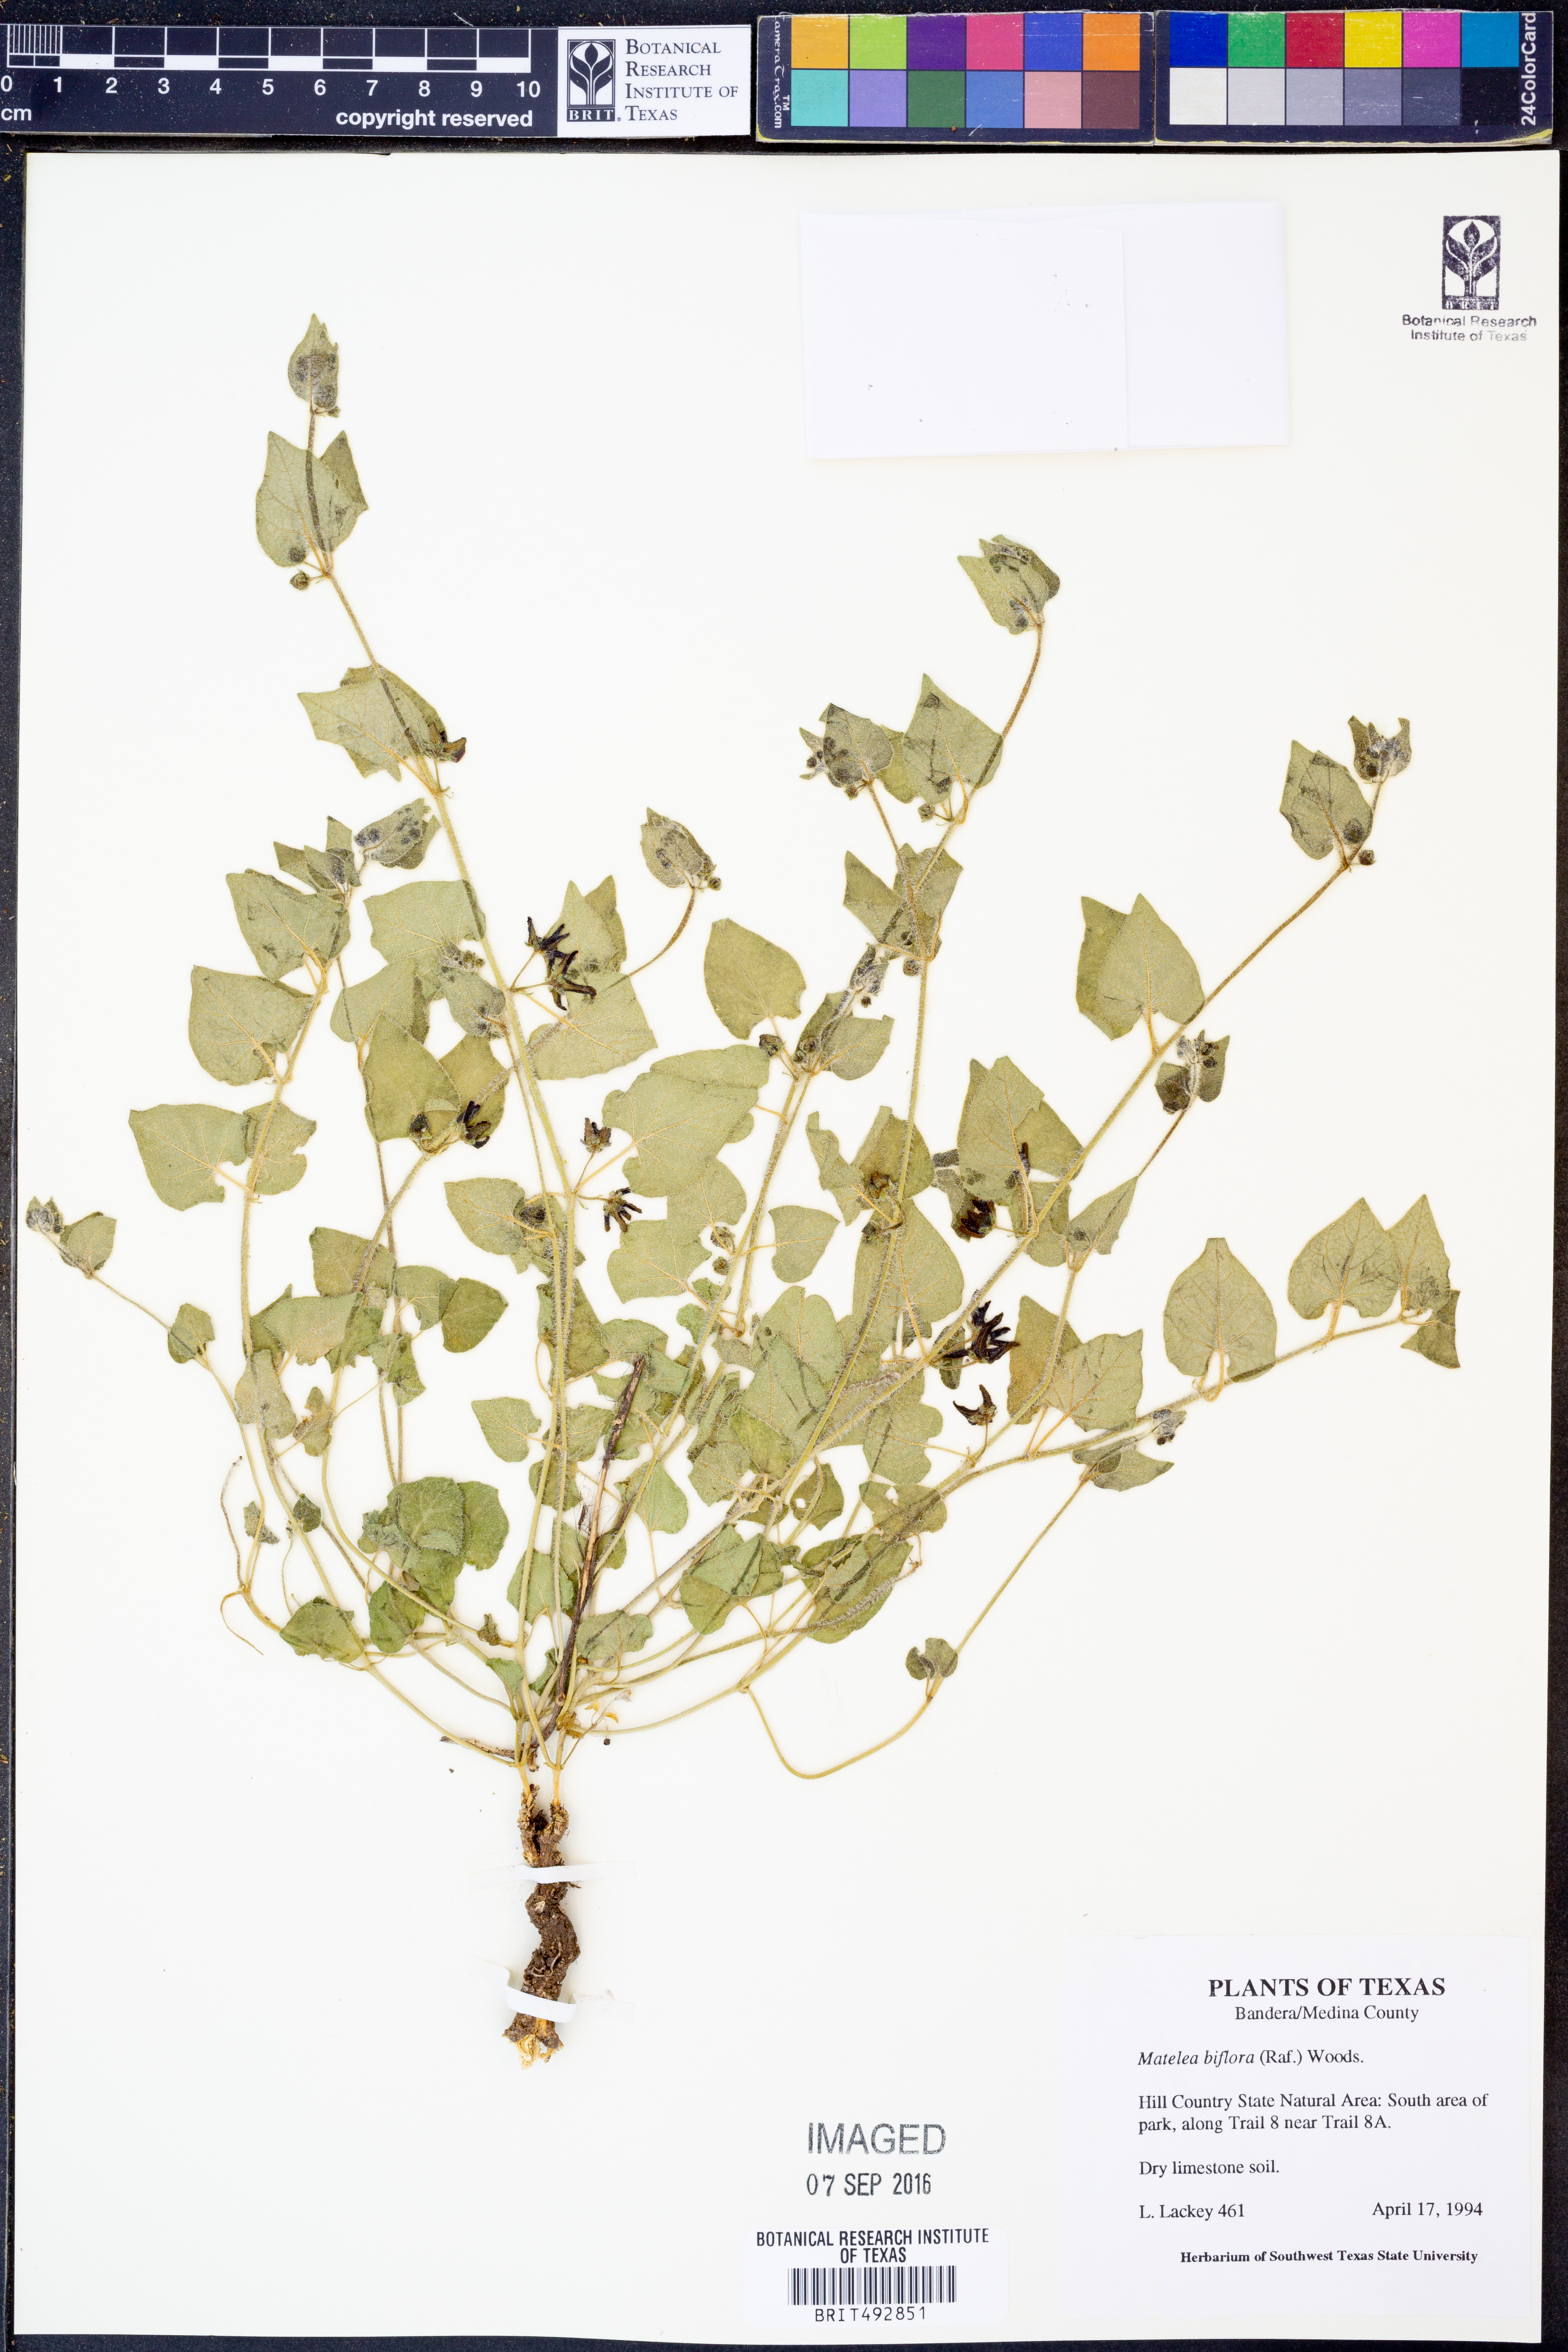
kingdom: Plantae
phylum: Tracheophyta
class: Magnoliopsida
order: Gentianales
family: Apocynaceae
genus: Chthamalia
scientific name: Chthamalia biflora
